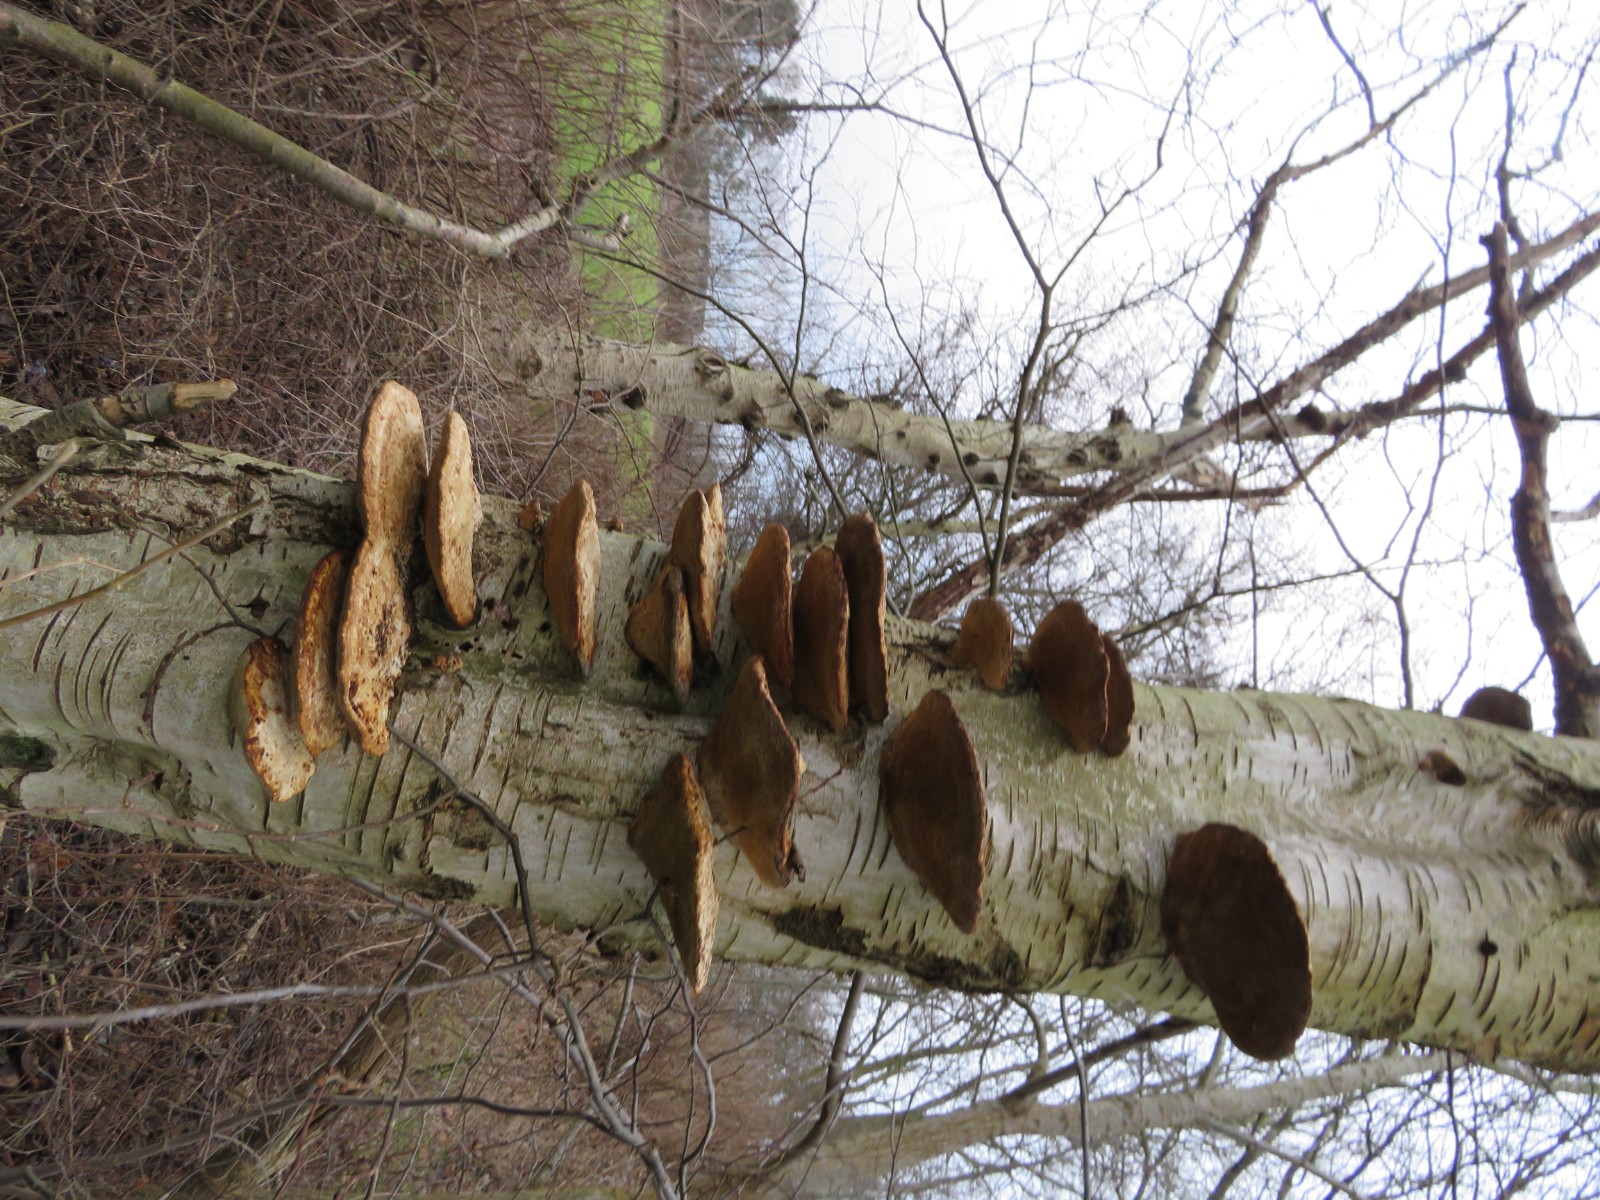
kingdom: Fungi
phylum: Basidiomycota
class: Agaricomycetes
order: Polyporales
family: Polyporaceae
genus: Daedaleopsis
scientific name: Daedaleopsis confragosa
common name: rødmende læderporesvamp
